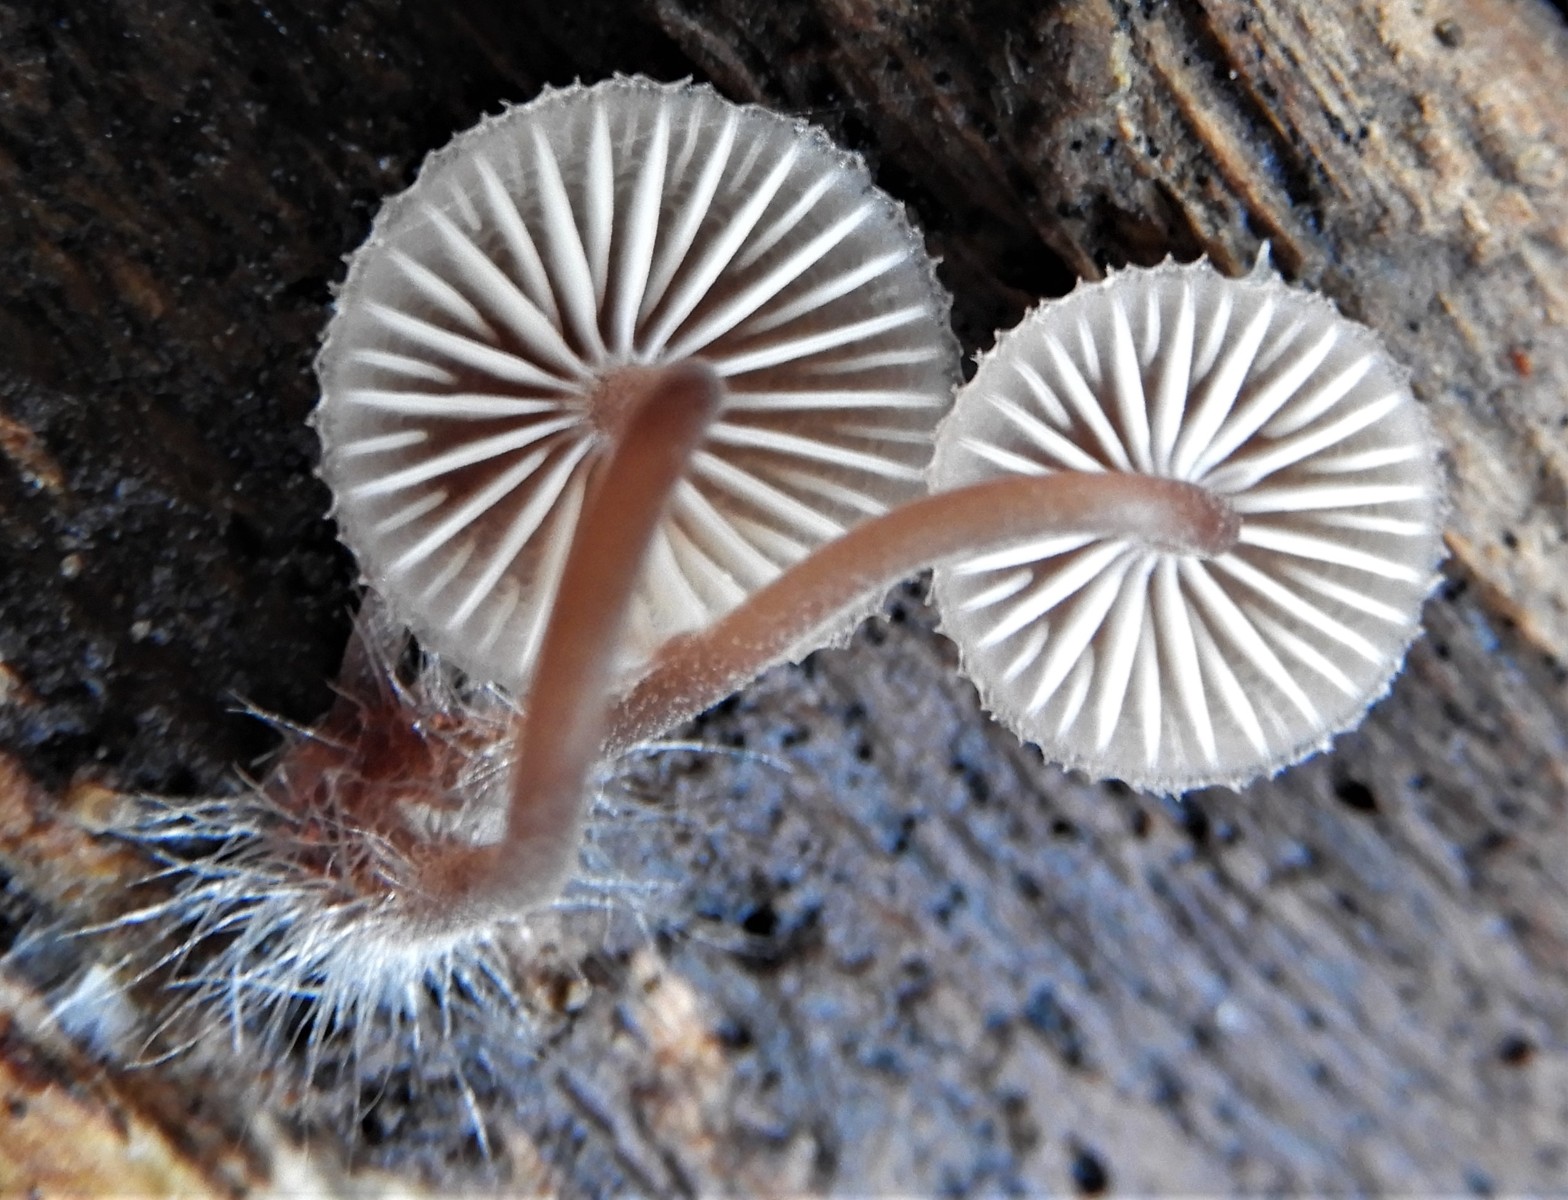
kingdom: Fungi
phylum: Basidiomycota
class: Agaricomycetes
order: Agaricales
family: Mycenaceae
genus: Mycena
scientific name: Mycena haematopus
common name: blødende huesvamp
